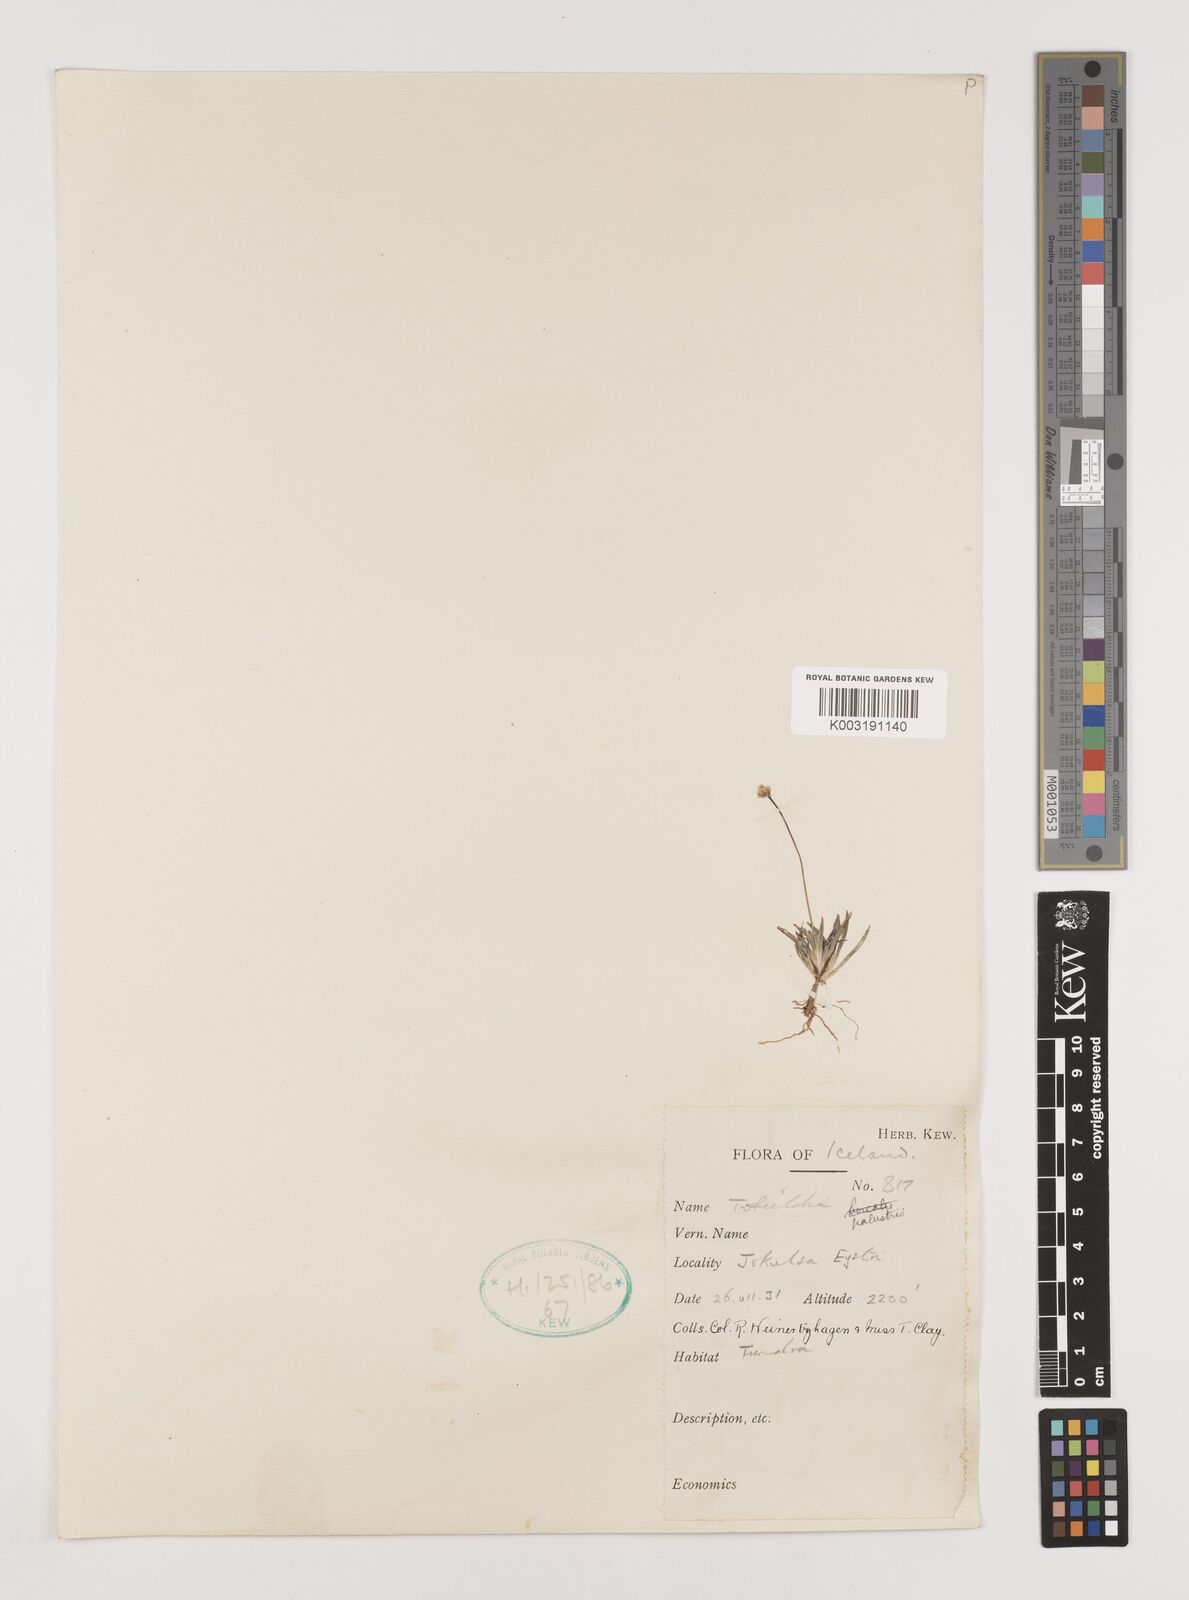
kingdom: Plantae
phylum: Tracheophyta
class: Liliopsida
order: Alismatales
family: Tofieldiaceae
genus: Tofieldia
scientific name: Tofieldia pusilla
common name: Scottish false asphodel
